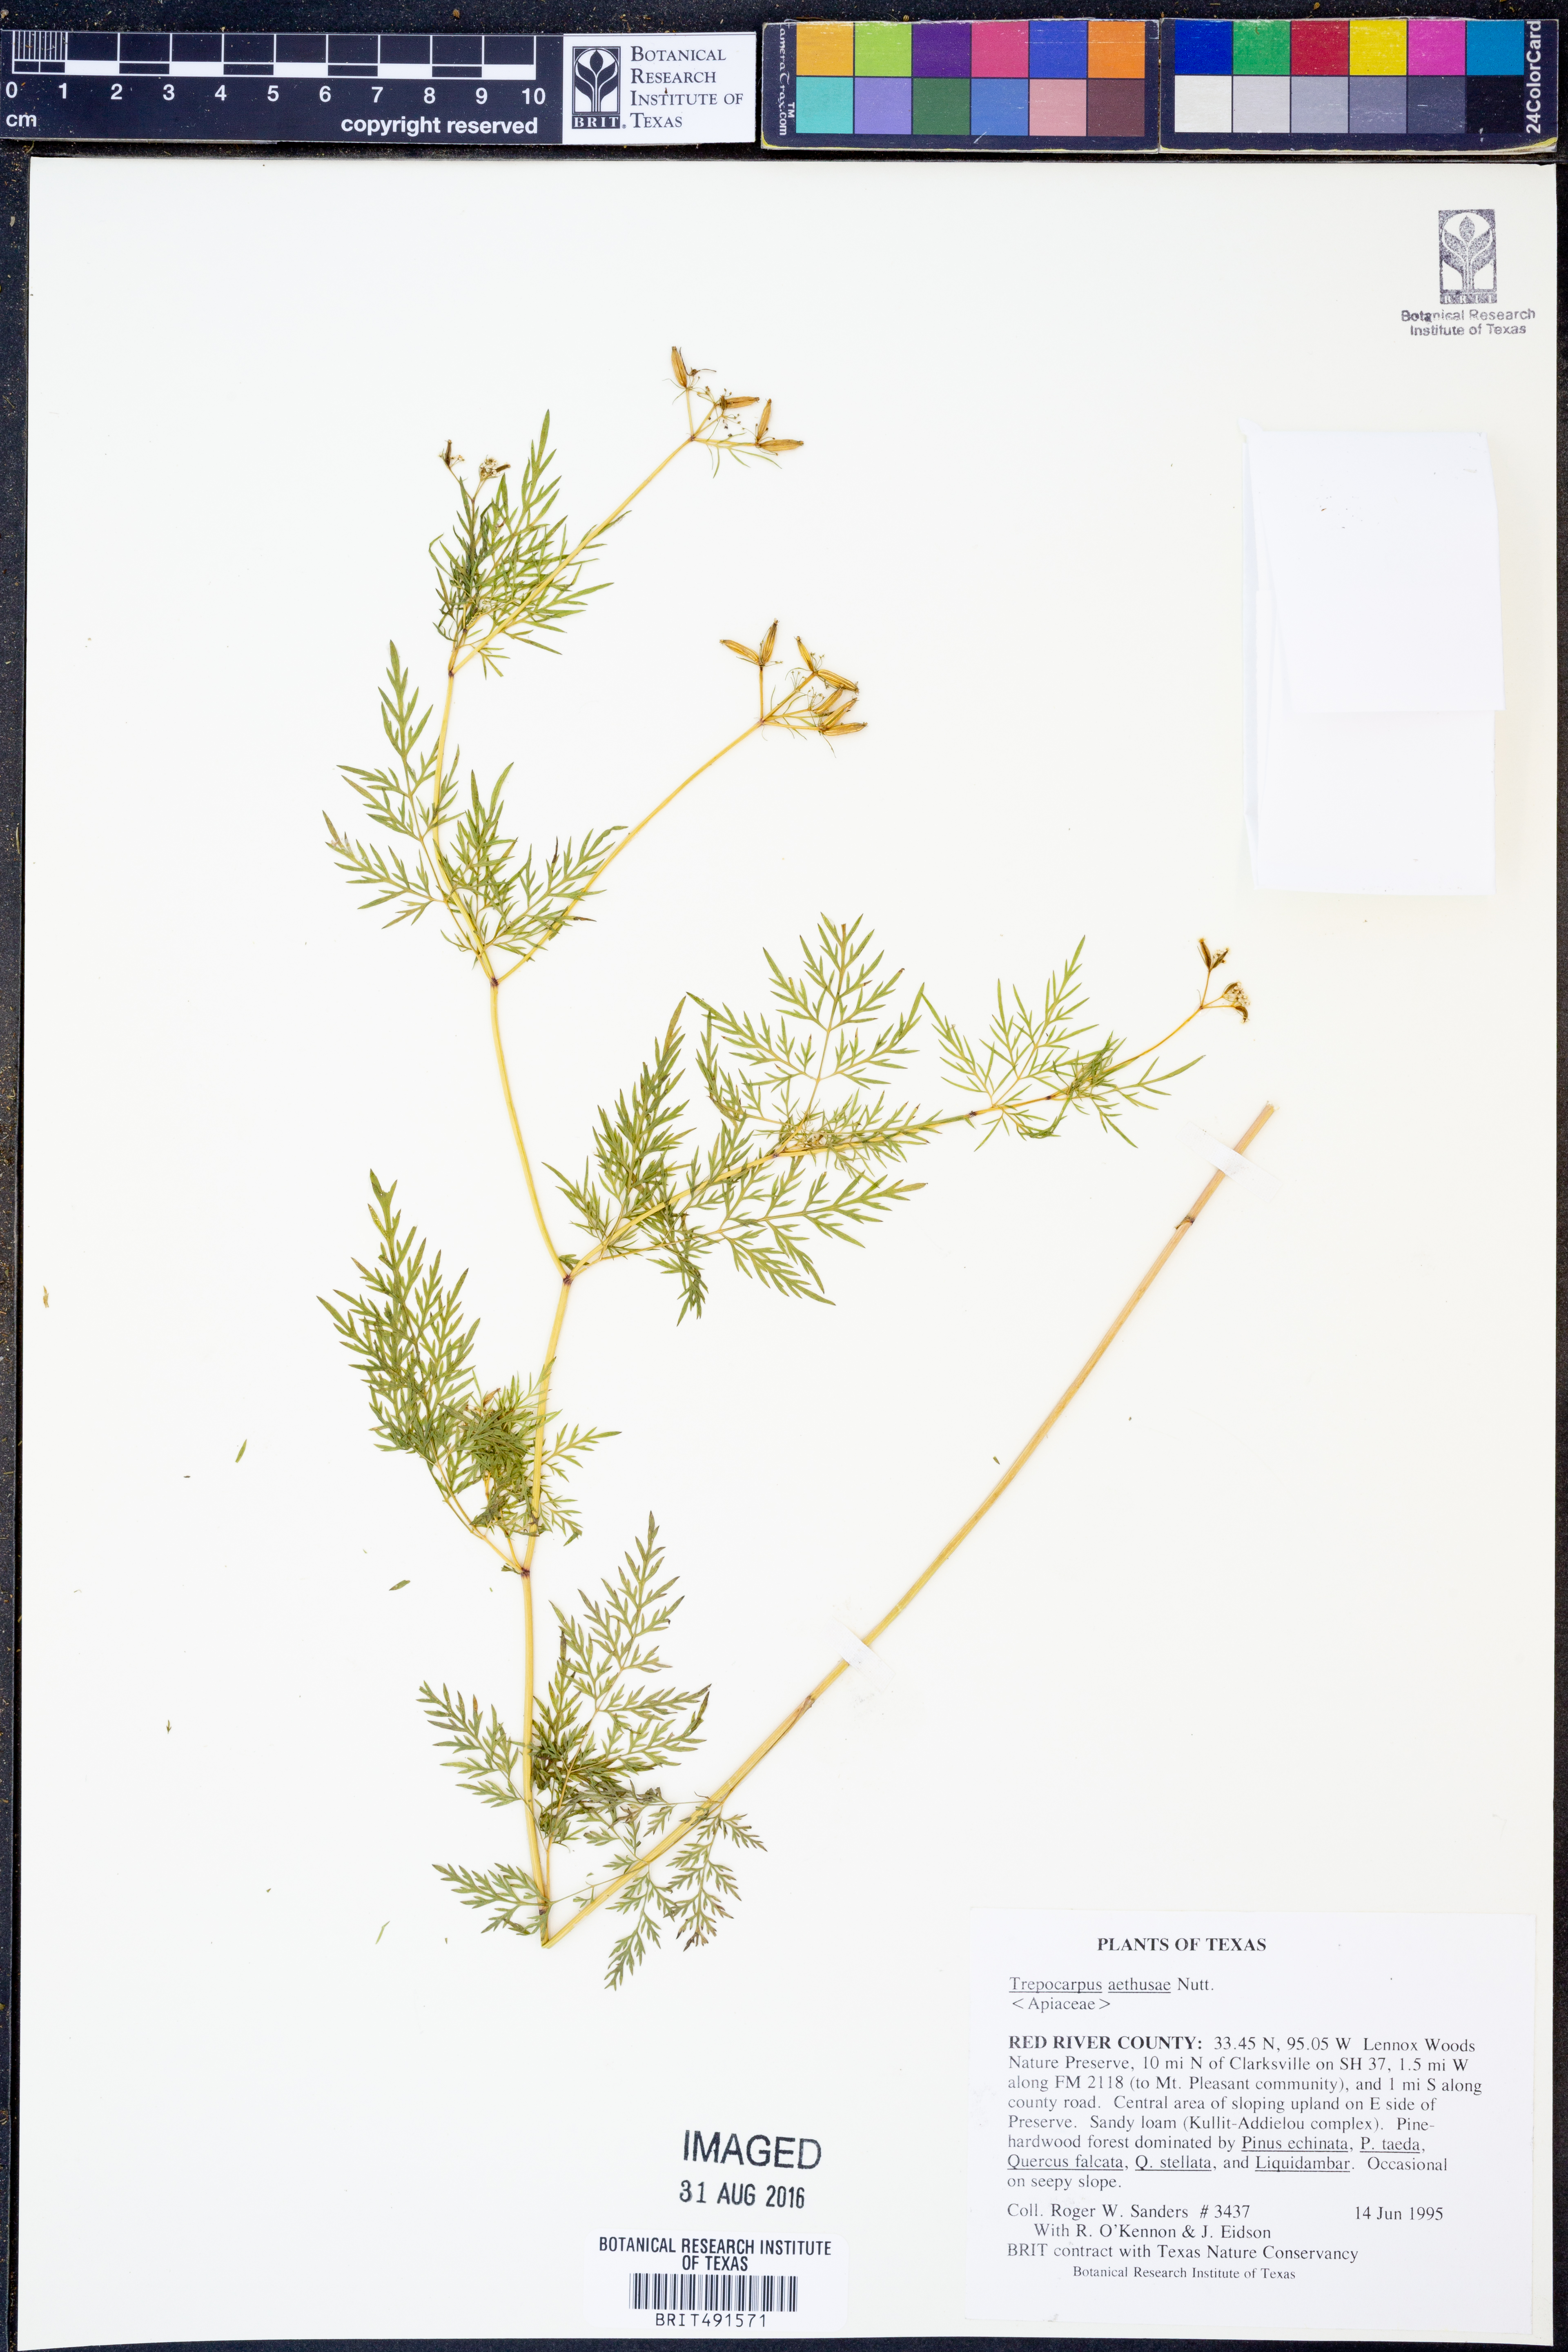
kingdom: Plantae
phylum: Tracheophyta
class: Magnoliopsida
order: Apiales
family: Apiaceae
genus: Trepocarpus
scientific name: Trepocarpus aethusae
